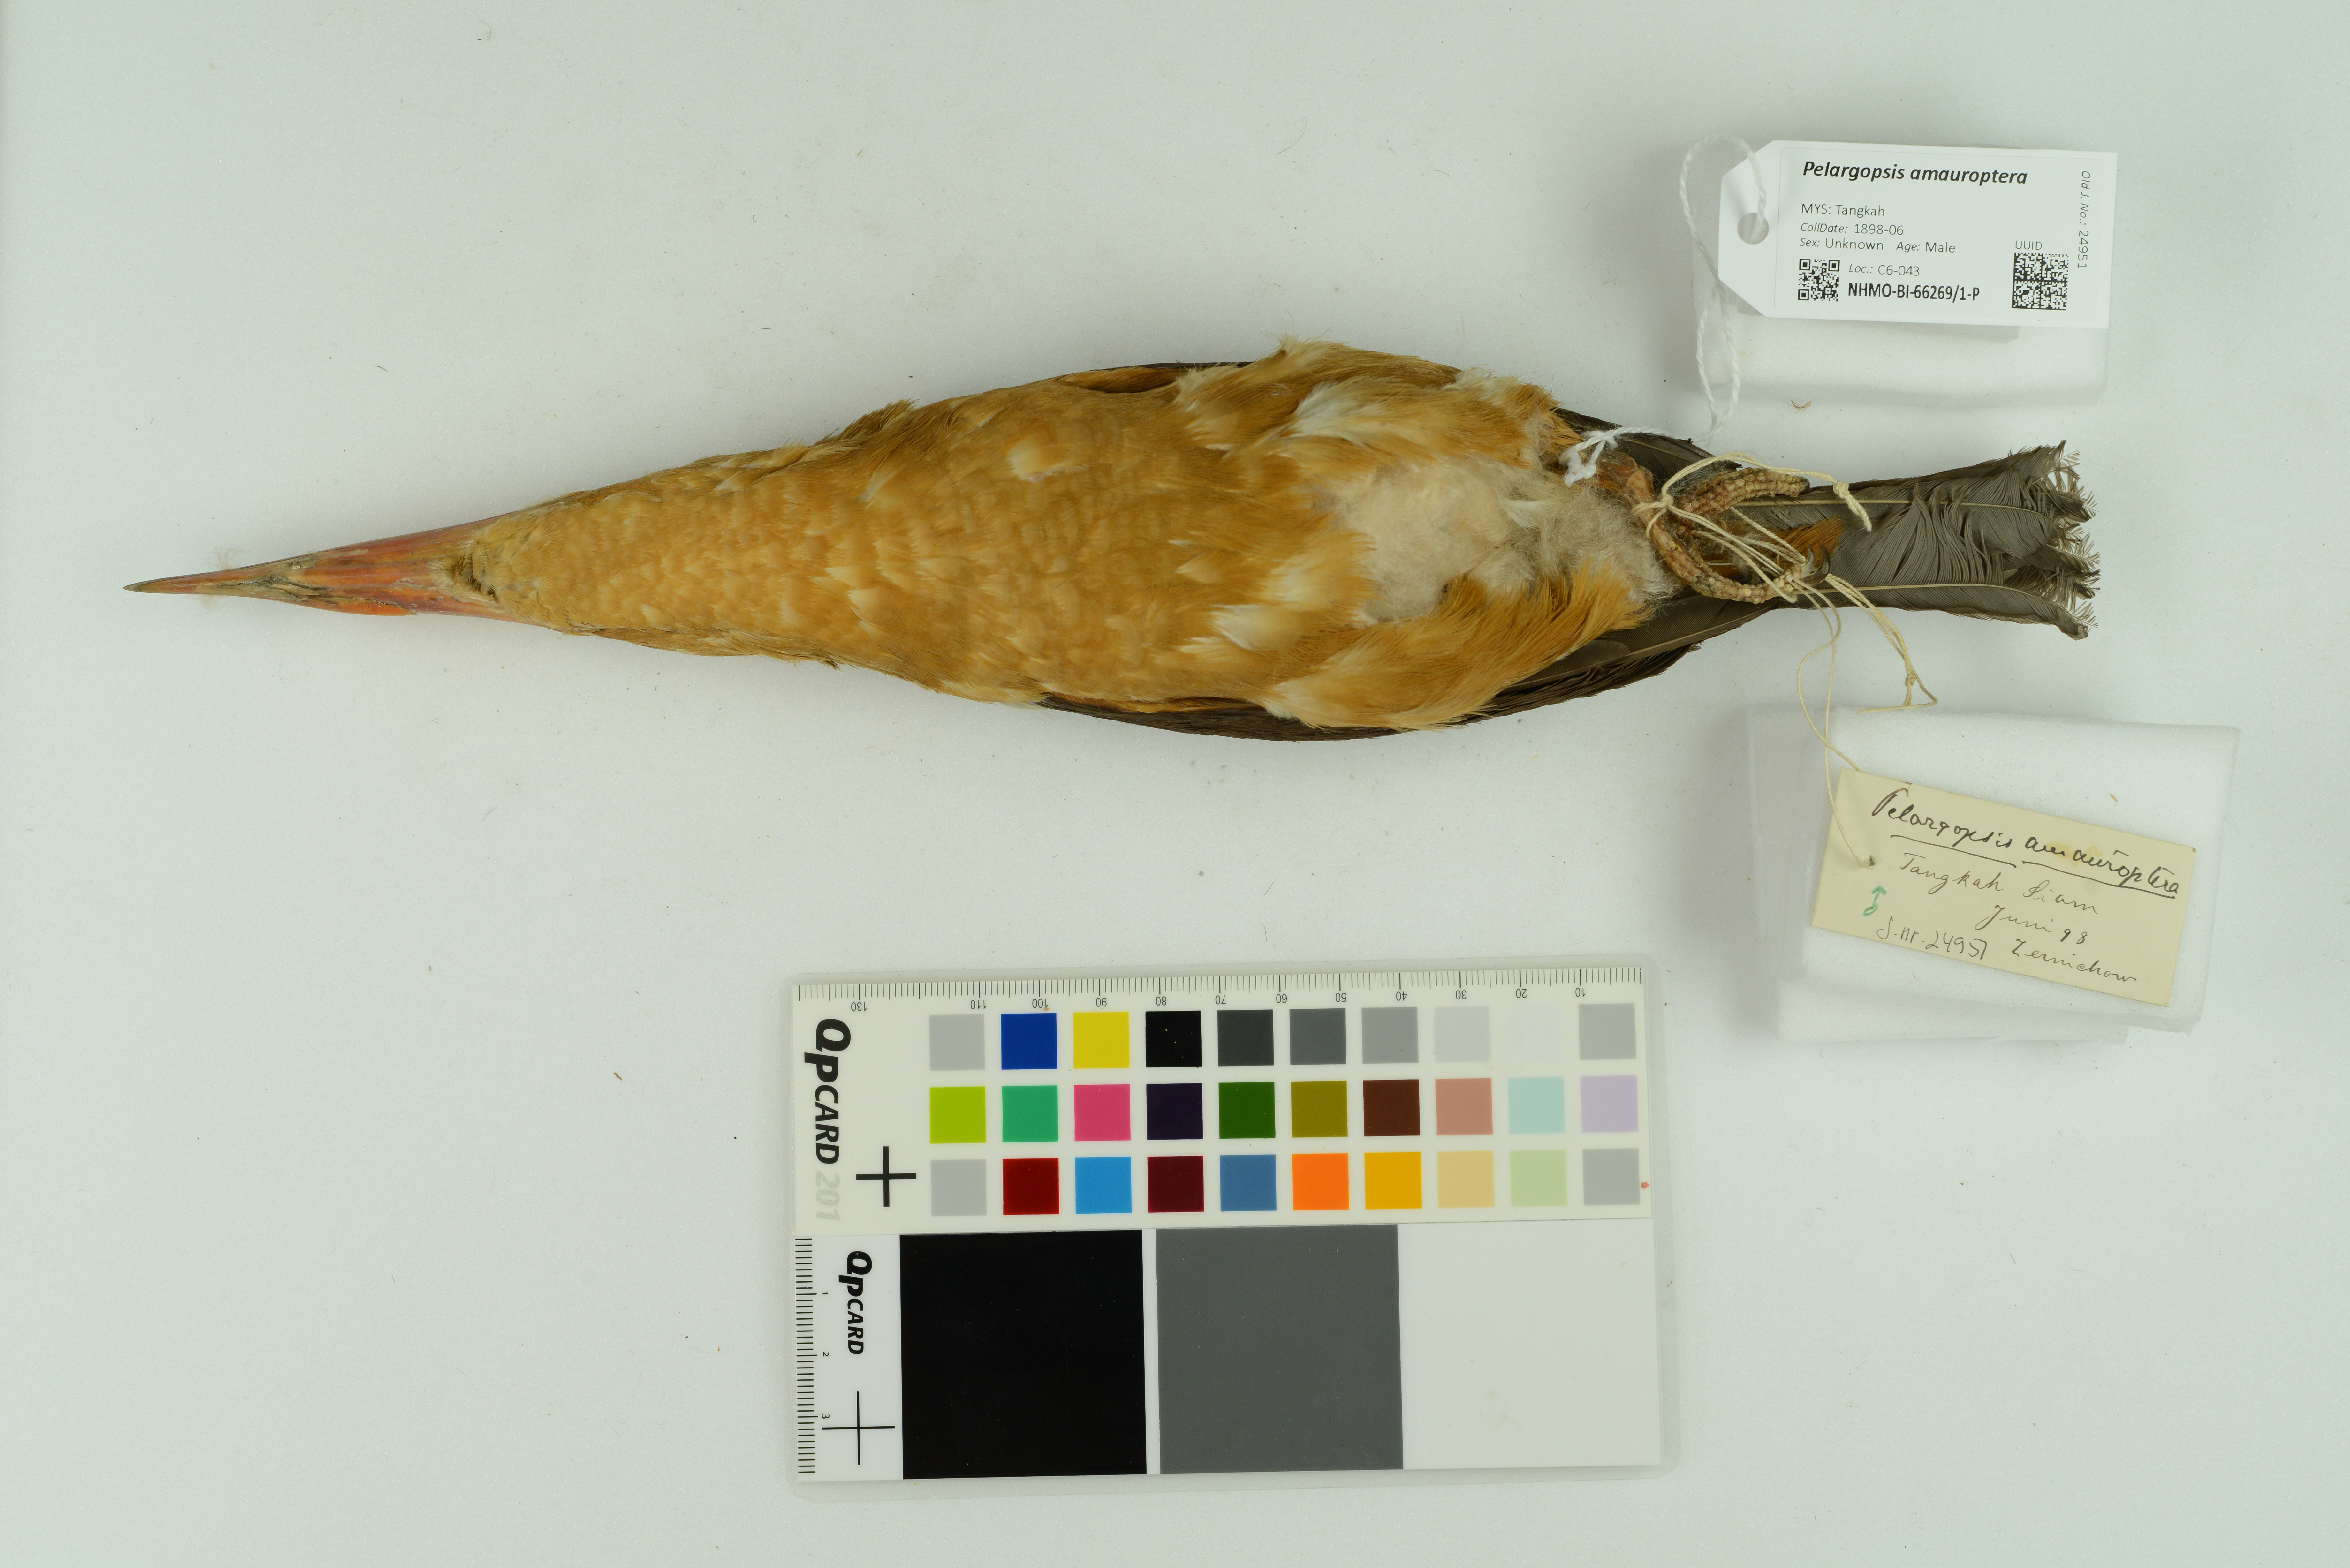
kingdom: Animalia
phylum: Chordata
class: Aves
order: Coraciiformes
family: Alcedinidae
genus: Pelargopsis
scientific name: Pelargopsis amauroptera
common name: Brown-winged kingfisher
